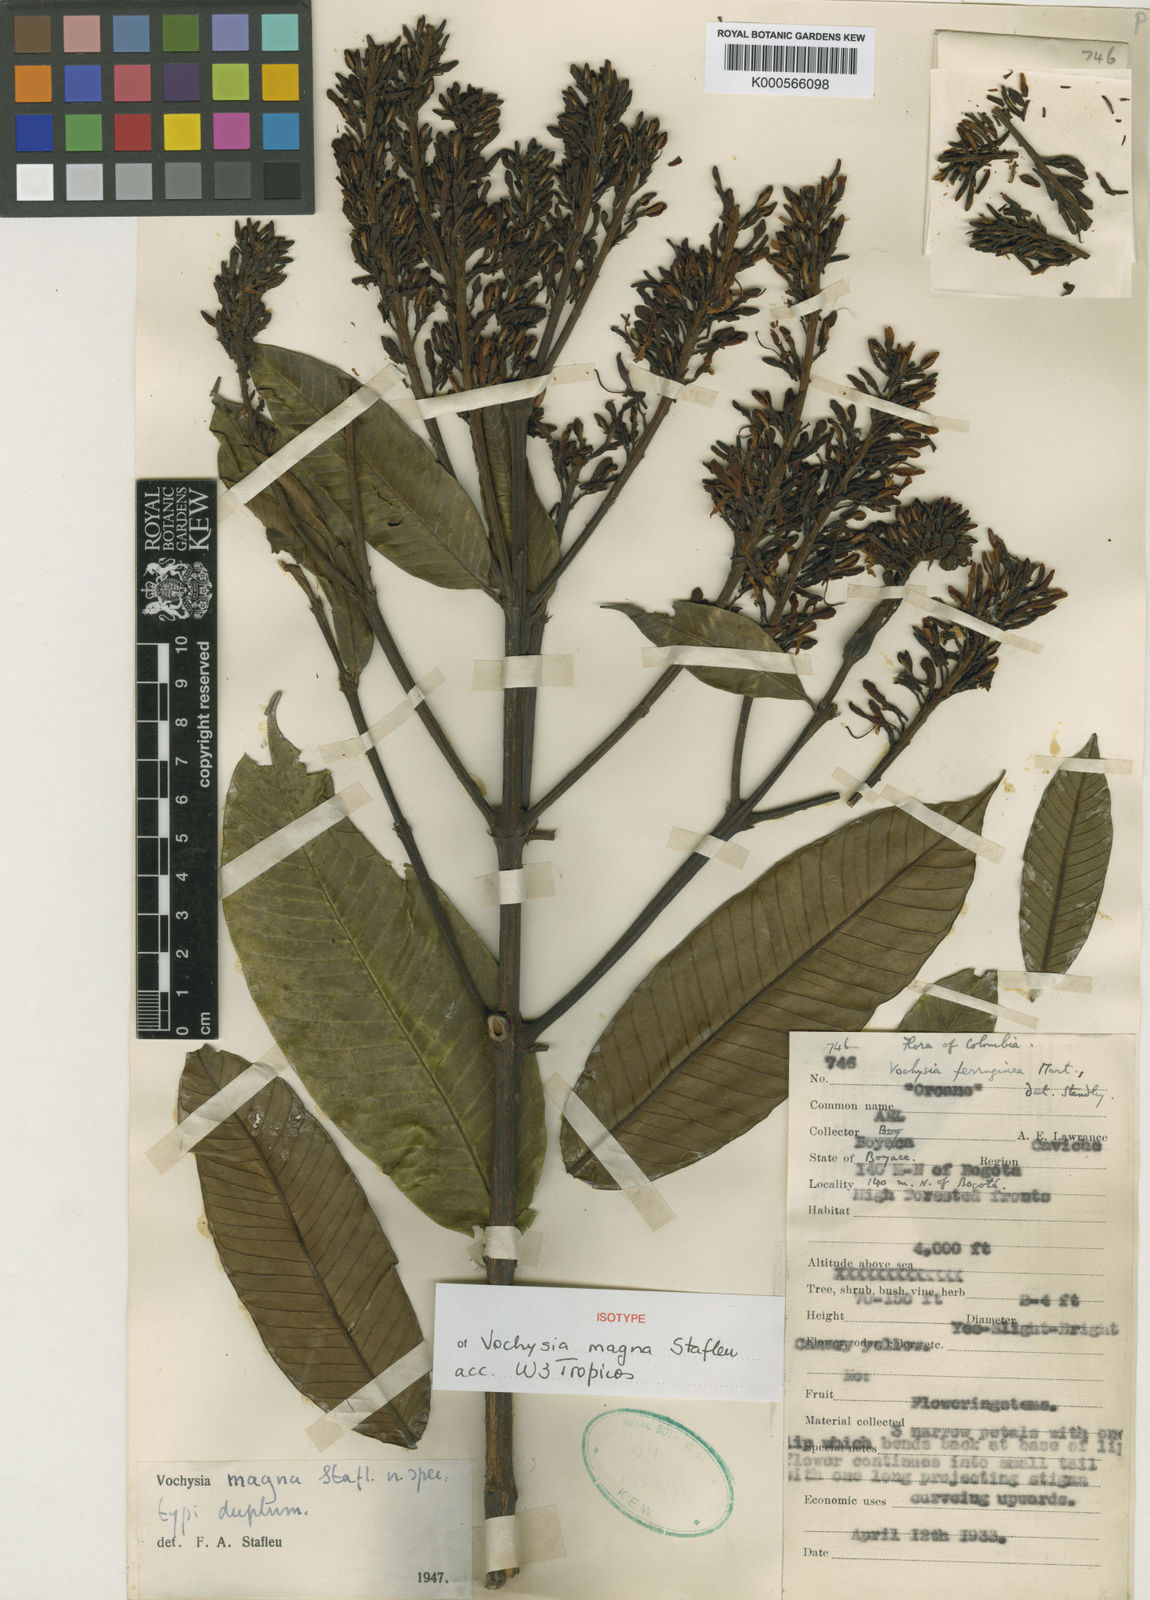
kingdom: Plantae
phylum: Tracheophyta
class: Magnoliopsida
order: Myrtales
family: Vochysiaceae
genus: Vochysia
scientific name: Vochysia magna
